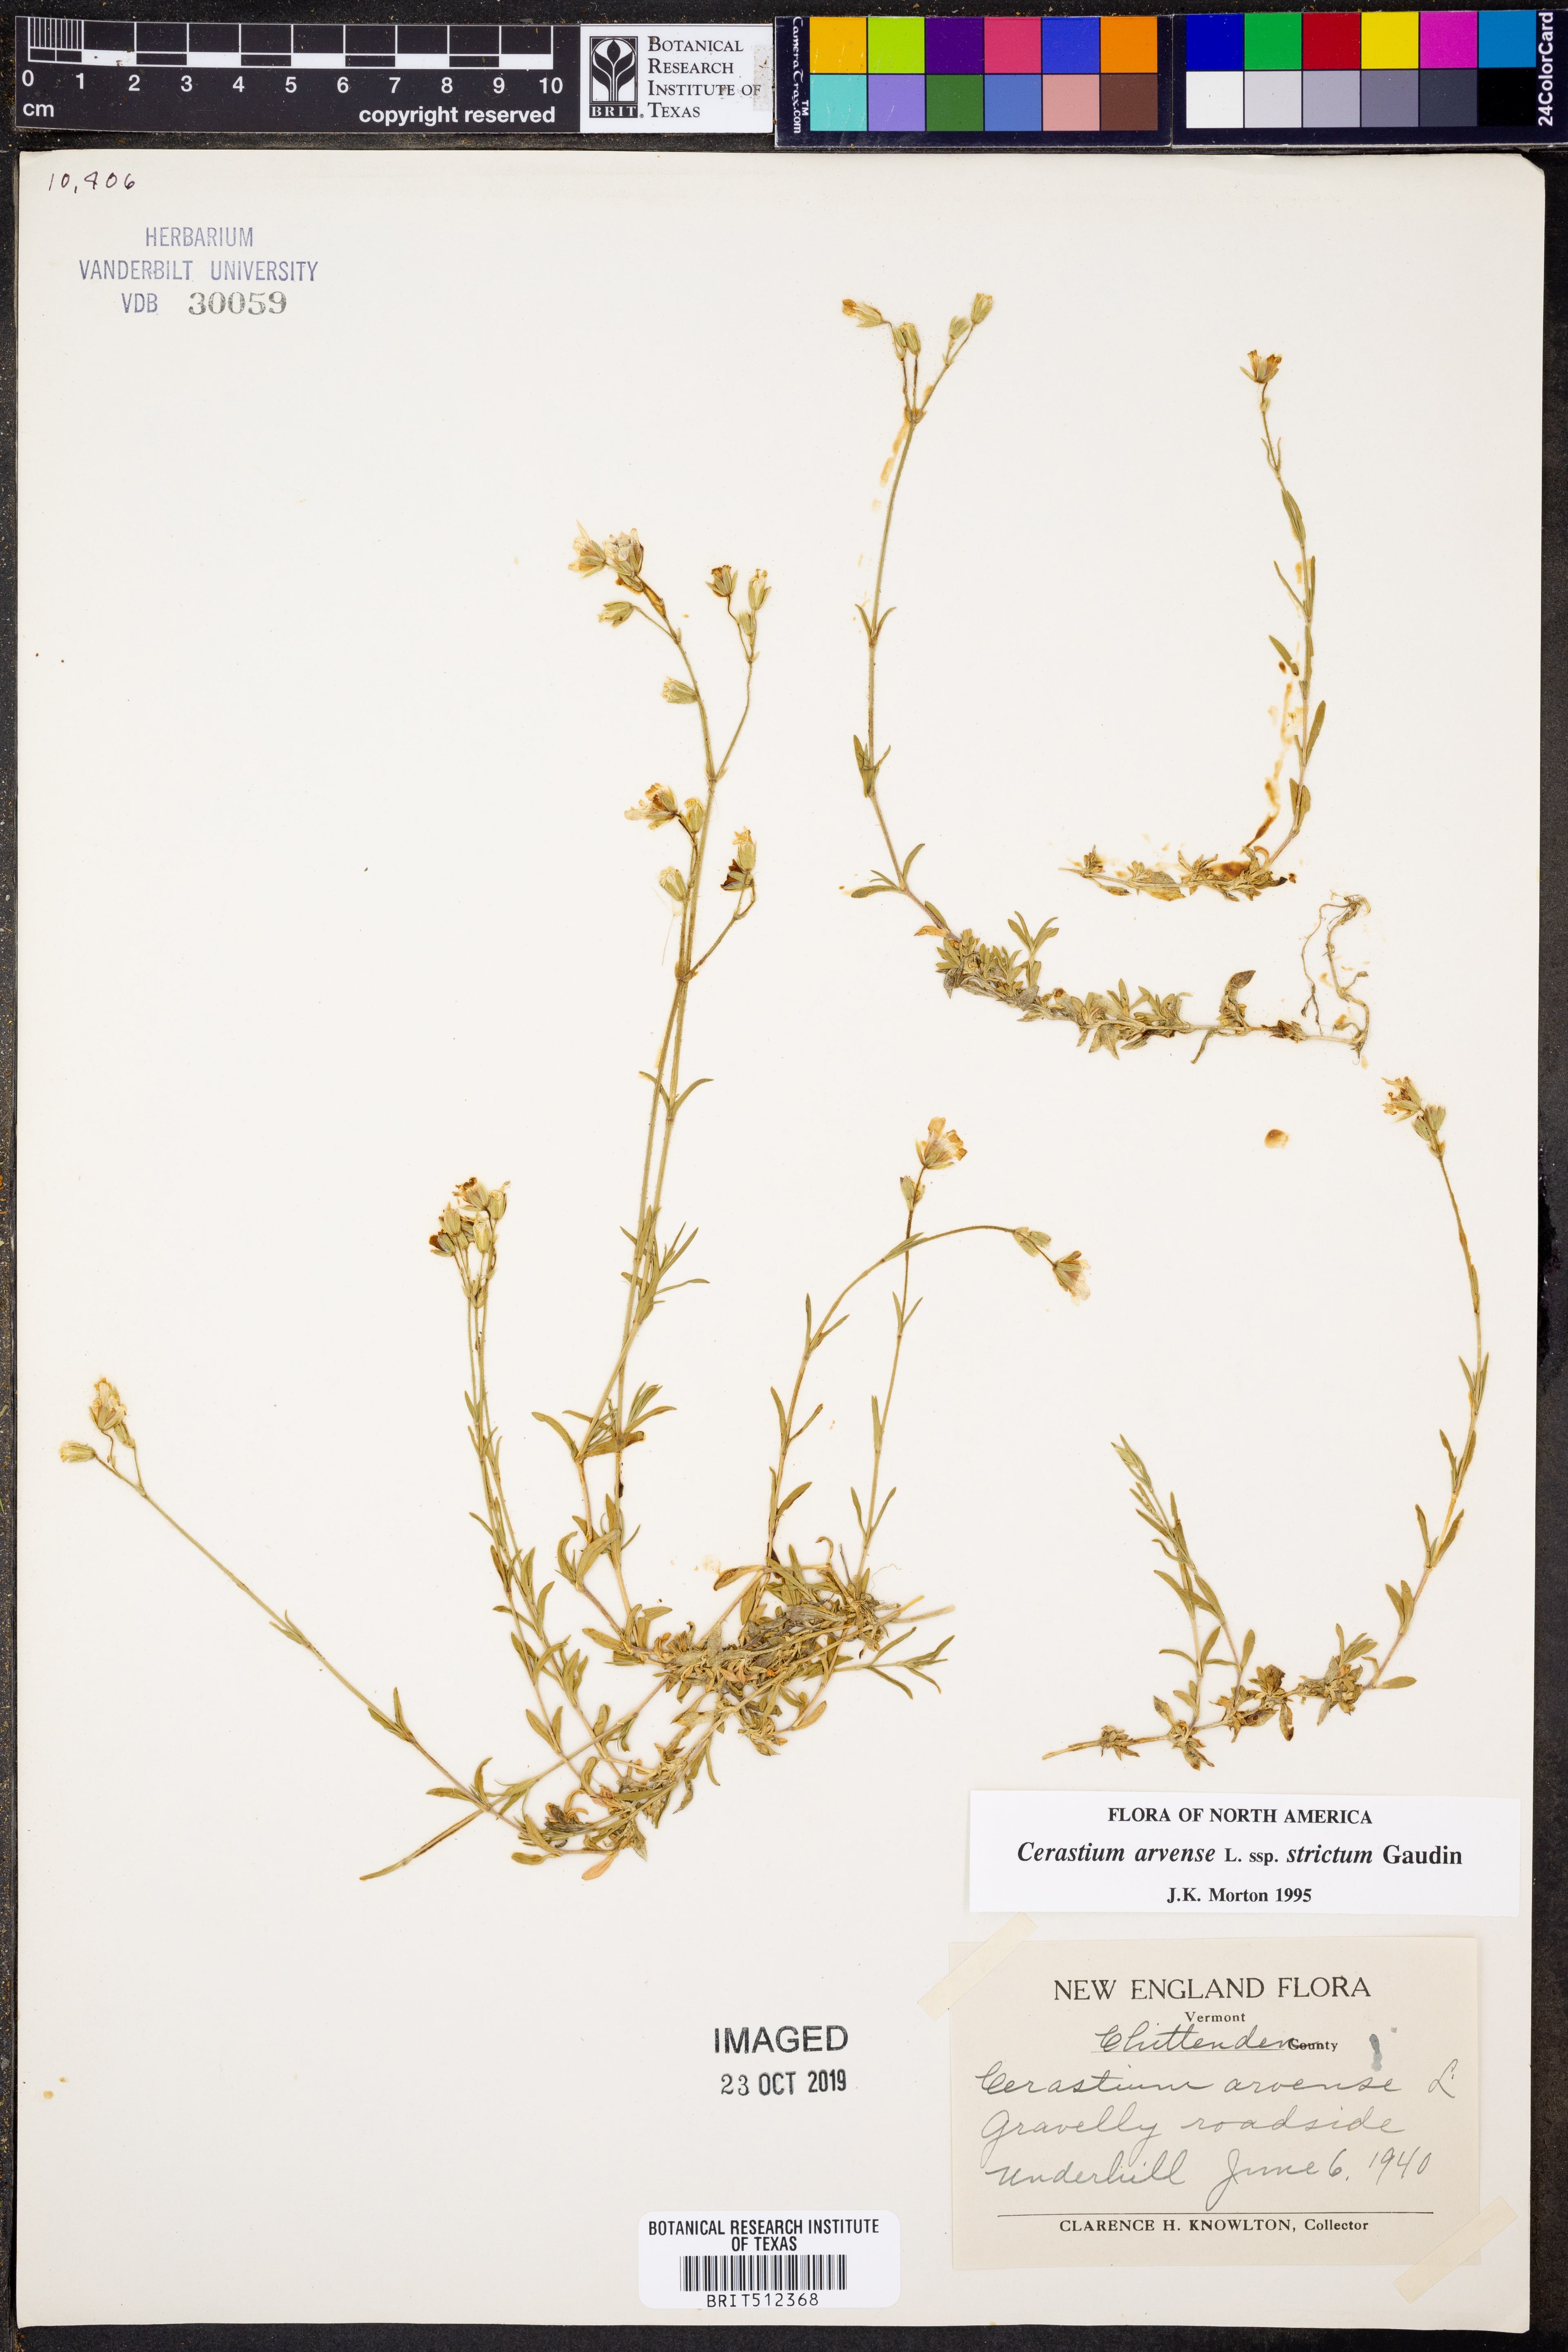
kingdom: Plantae
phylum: Tracheophyta
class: Magnoliopsida
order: Caryophyllales
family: Caryophyllaceae
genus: Cerastium
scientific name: Cerastium elongatum
